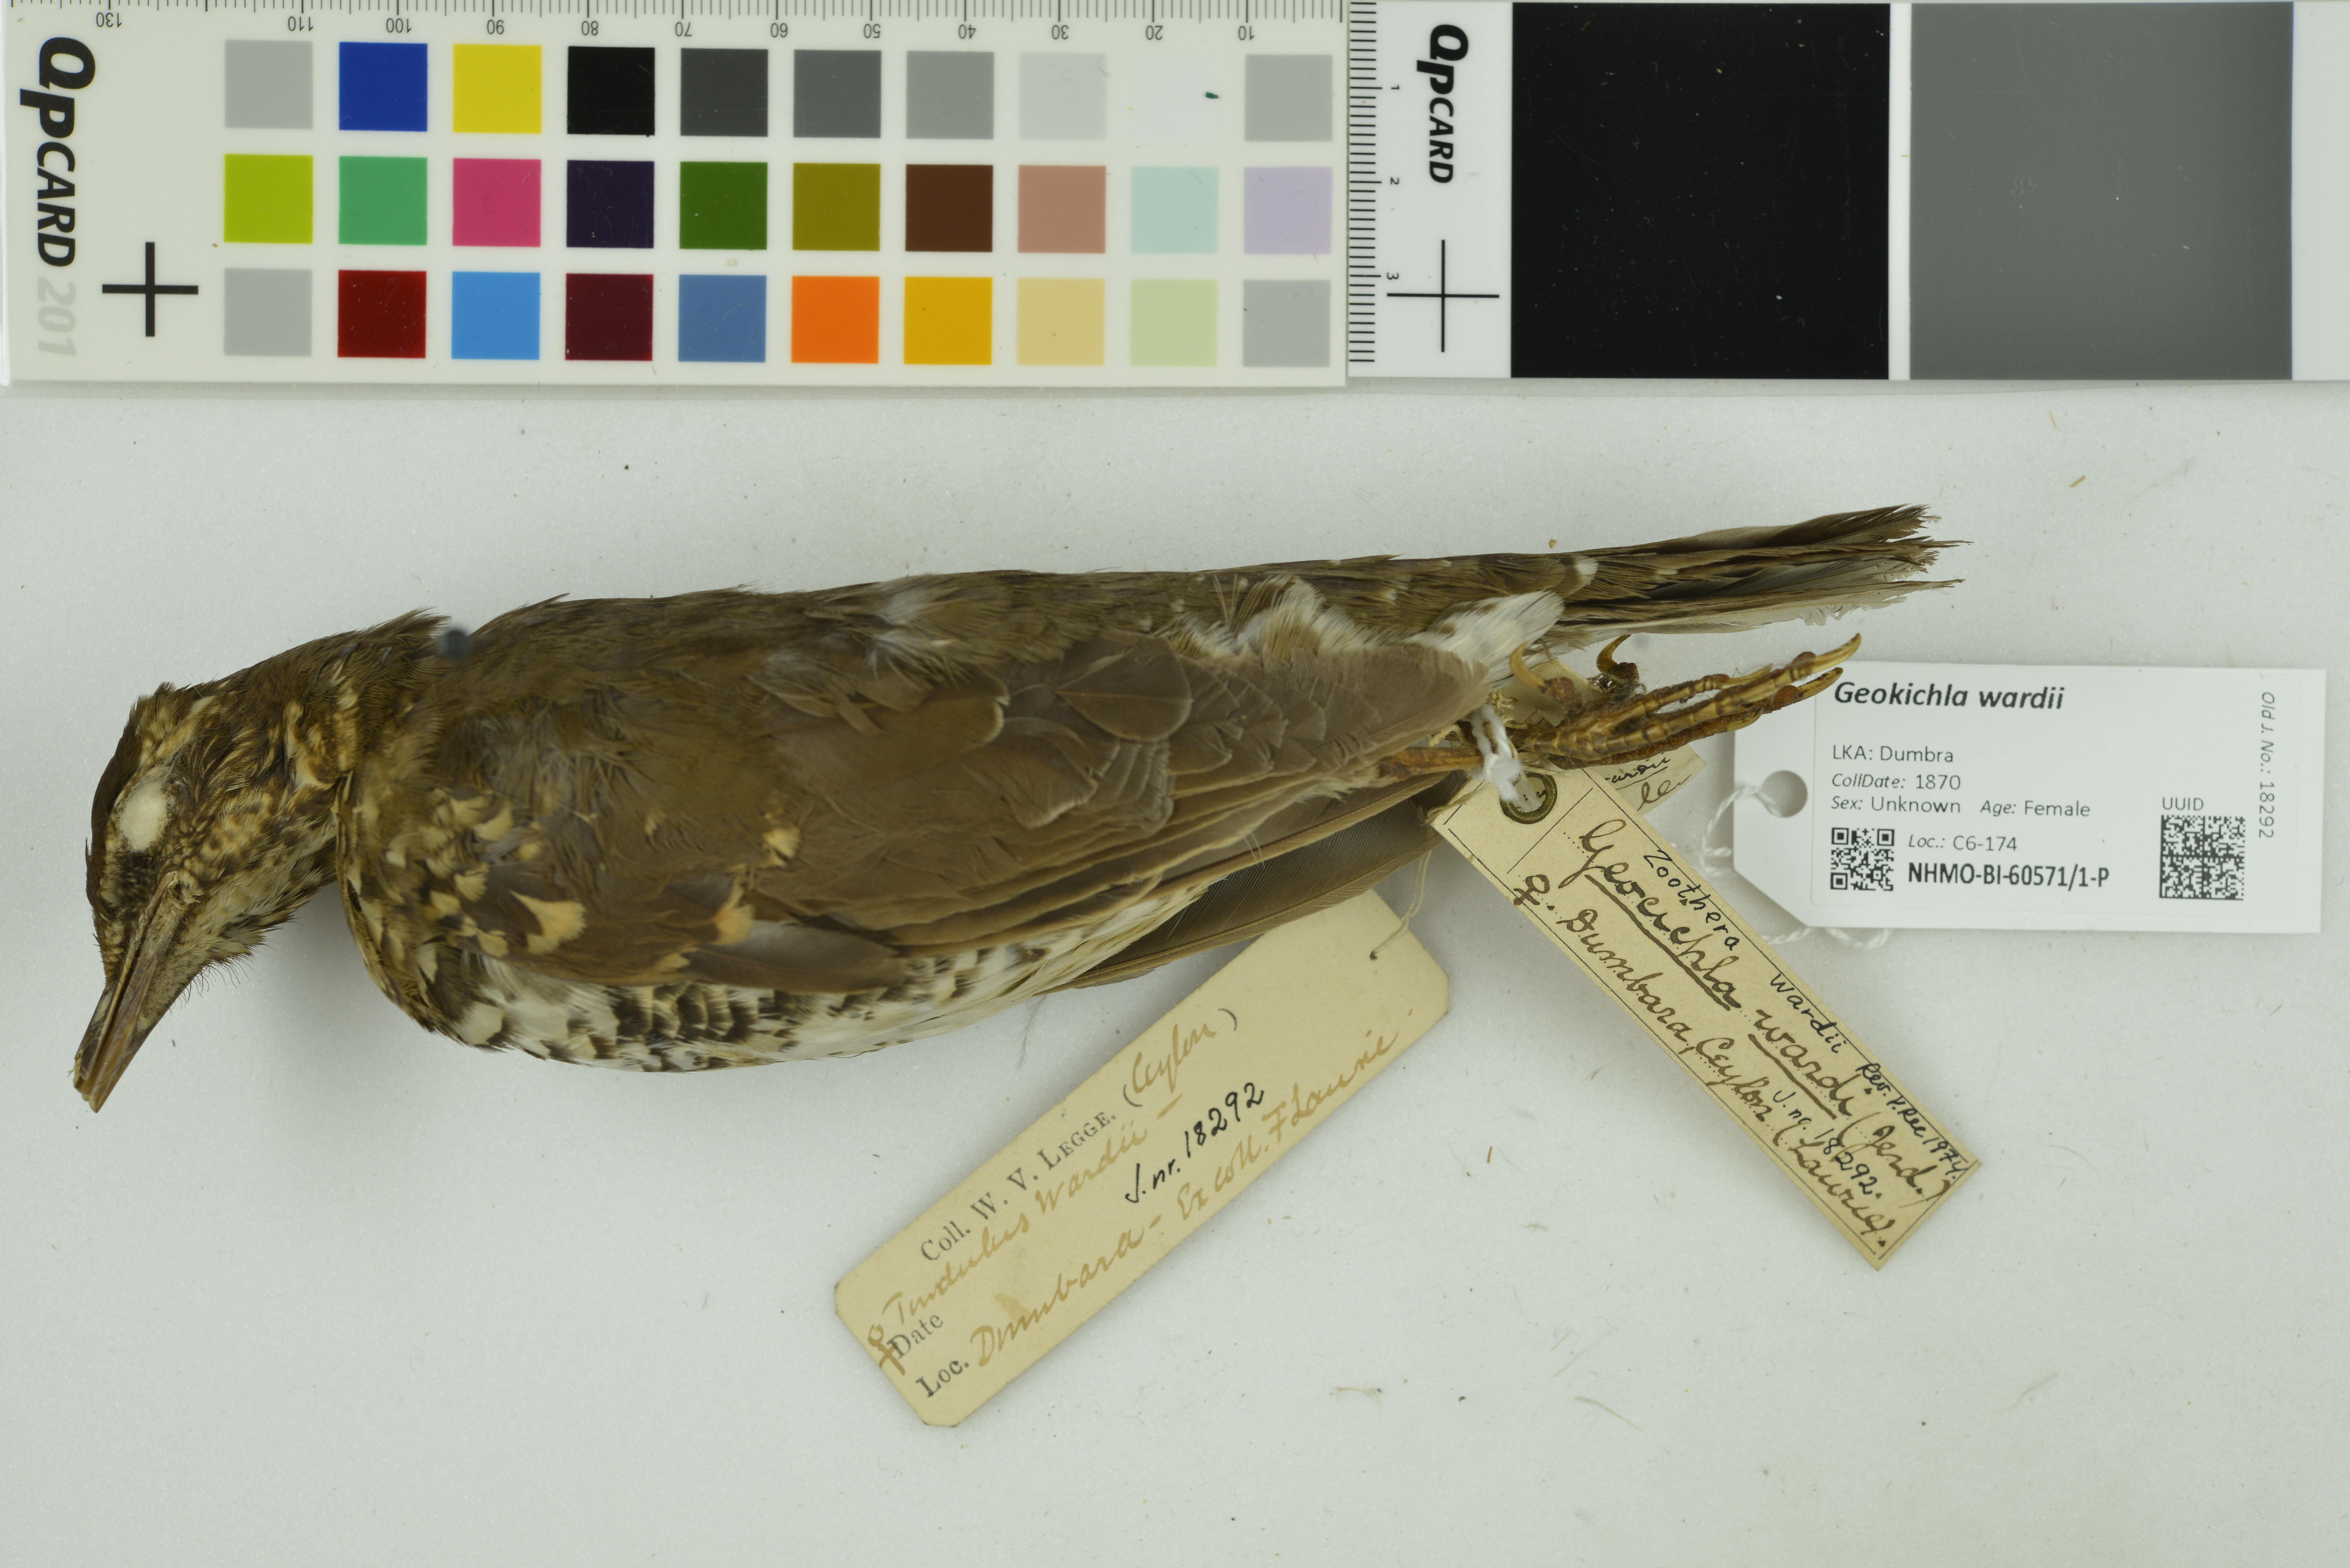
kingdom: Animalia
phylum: Chordata
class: Aves
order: Passeriformes
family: Turdidae
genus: Geokichla
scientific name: Geokichla wardii
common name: Pied thrush
